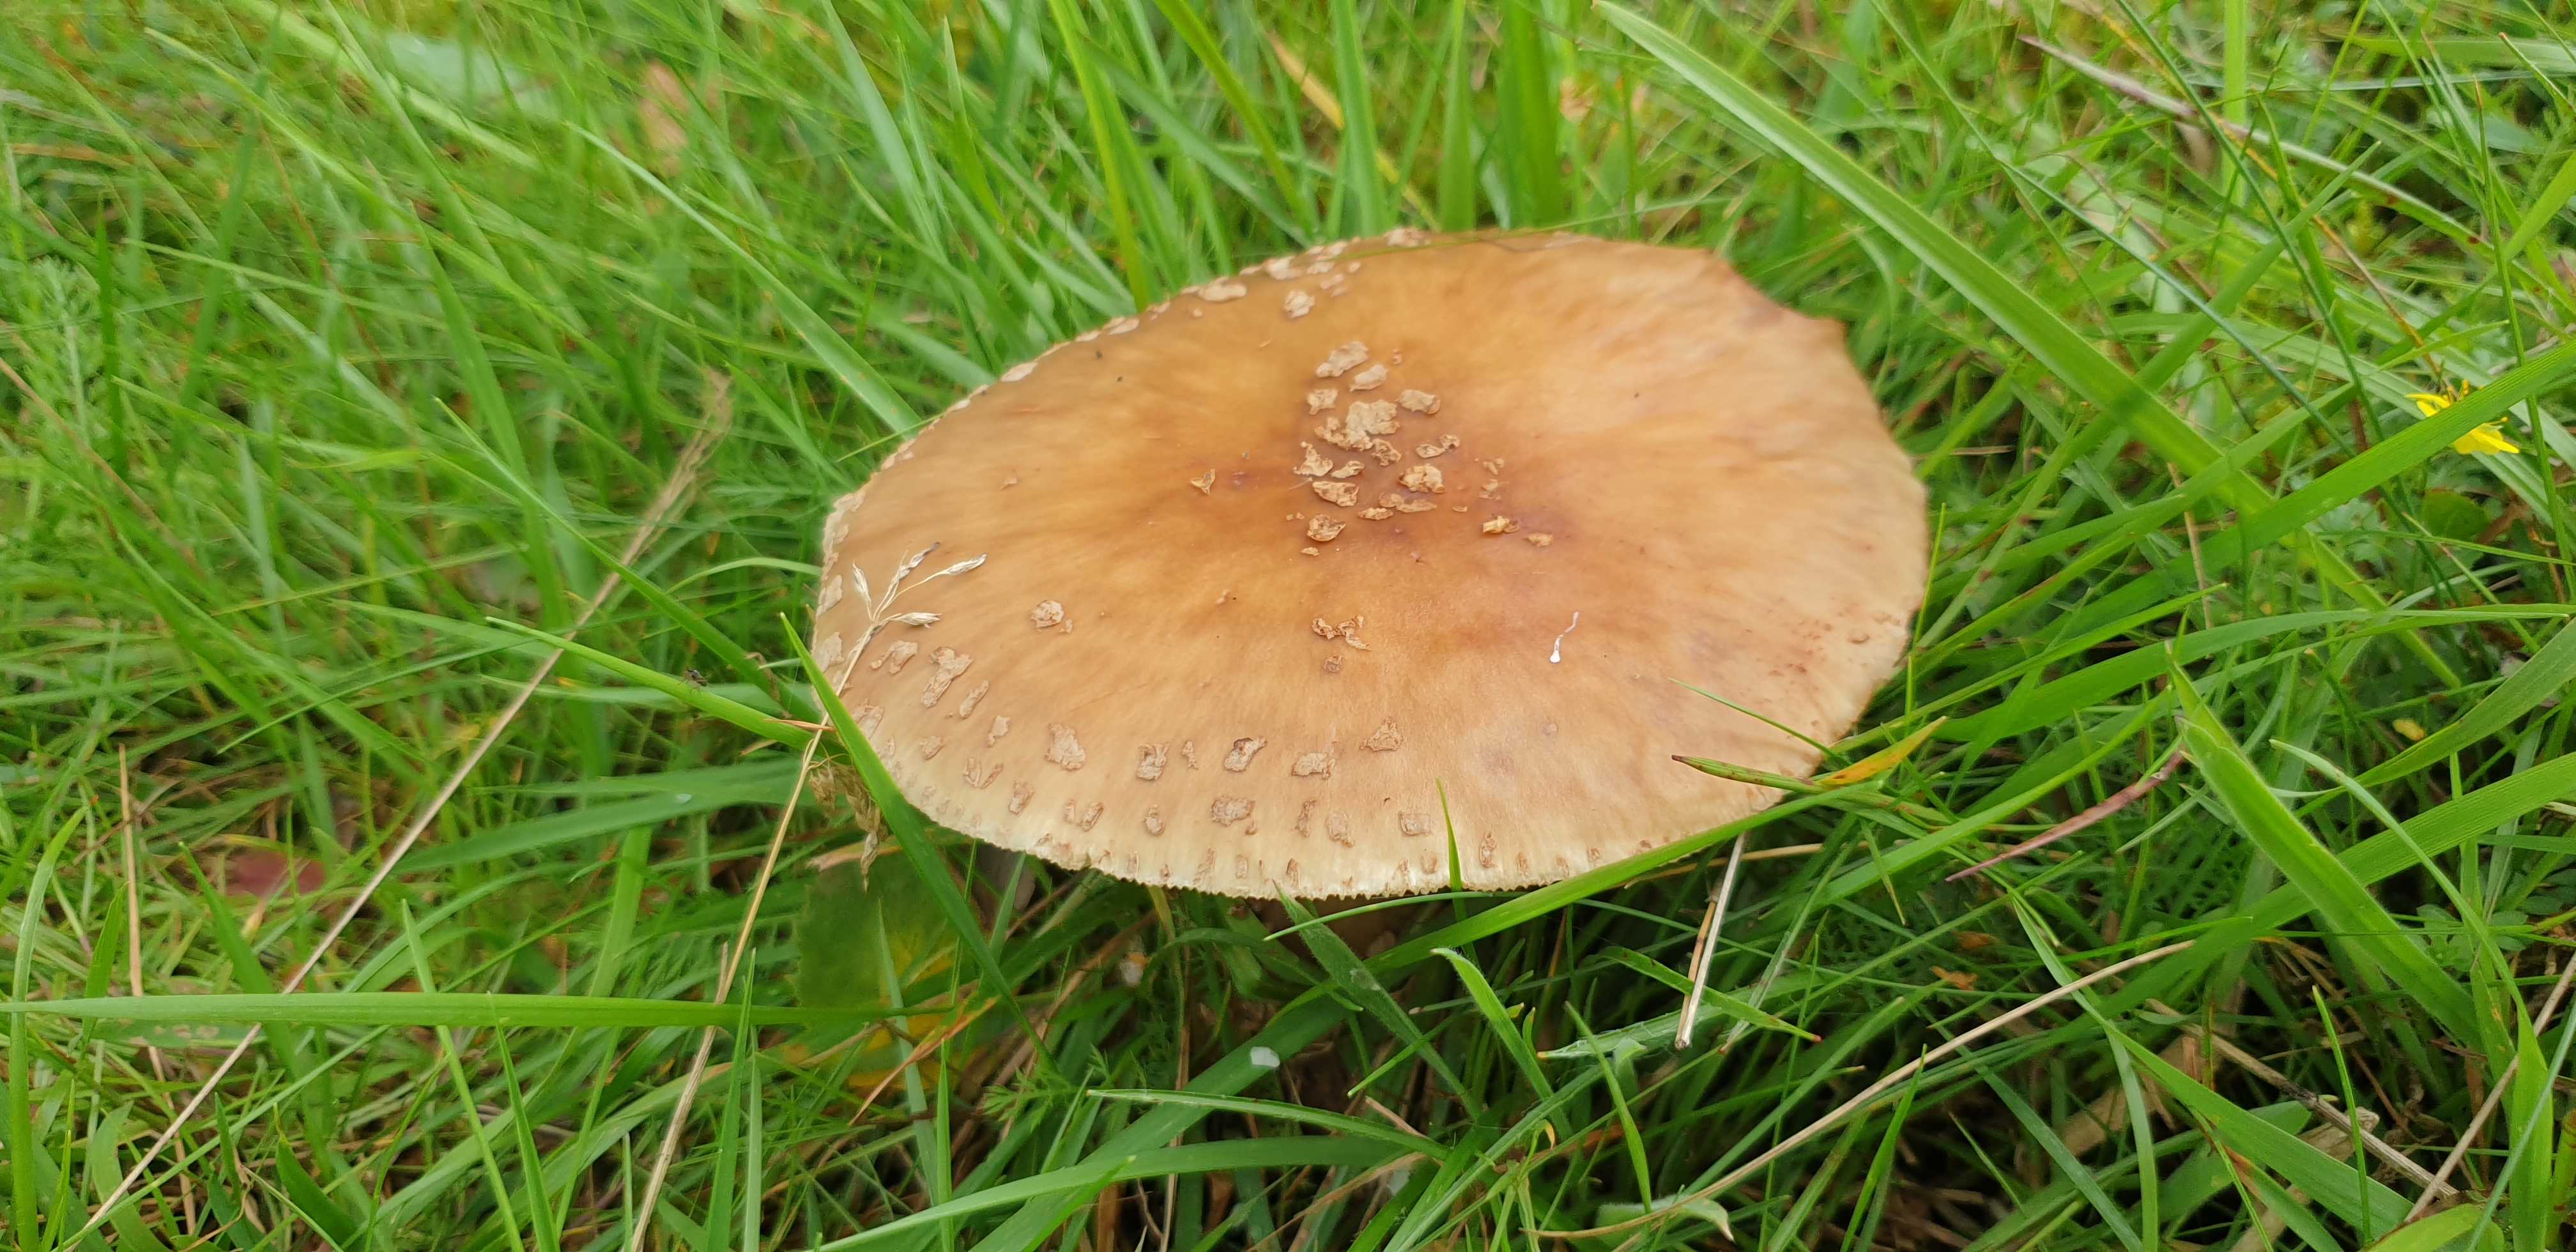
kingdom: Fungi
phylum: Basidiomycota
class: Agaricomycetes
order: Agaricales
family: Amanitaceae
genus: Amanita
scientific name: Amanita rubescens
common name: rødmende fluesvamp
